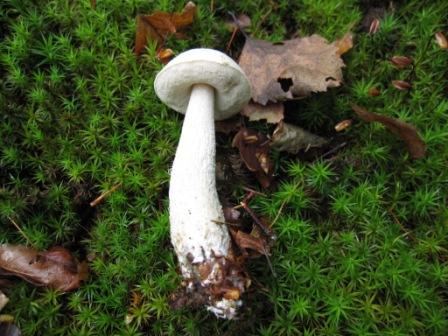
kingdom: Fungi
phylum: Basidiomycota
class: Agaricomycetes
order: Boletales
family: Boletaceae
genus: Leccinum
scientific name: Leccinum cyaneobasileucum
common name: almindelig skælrørhat
